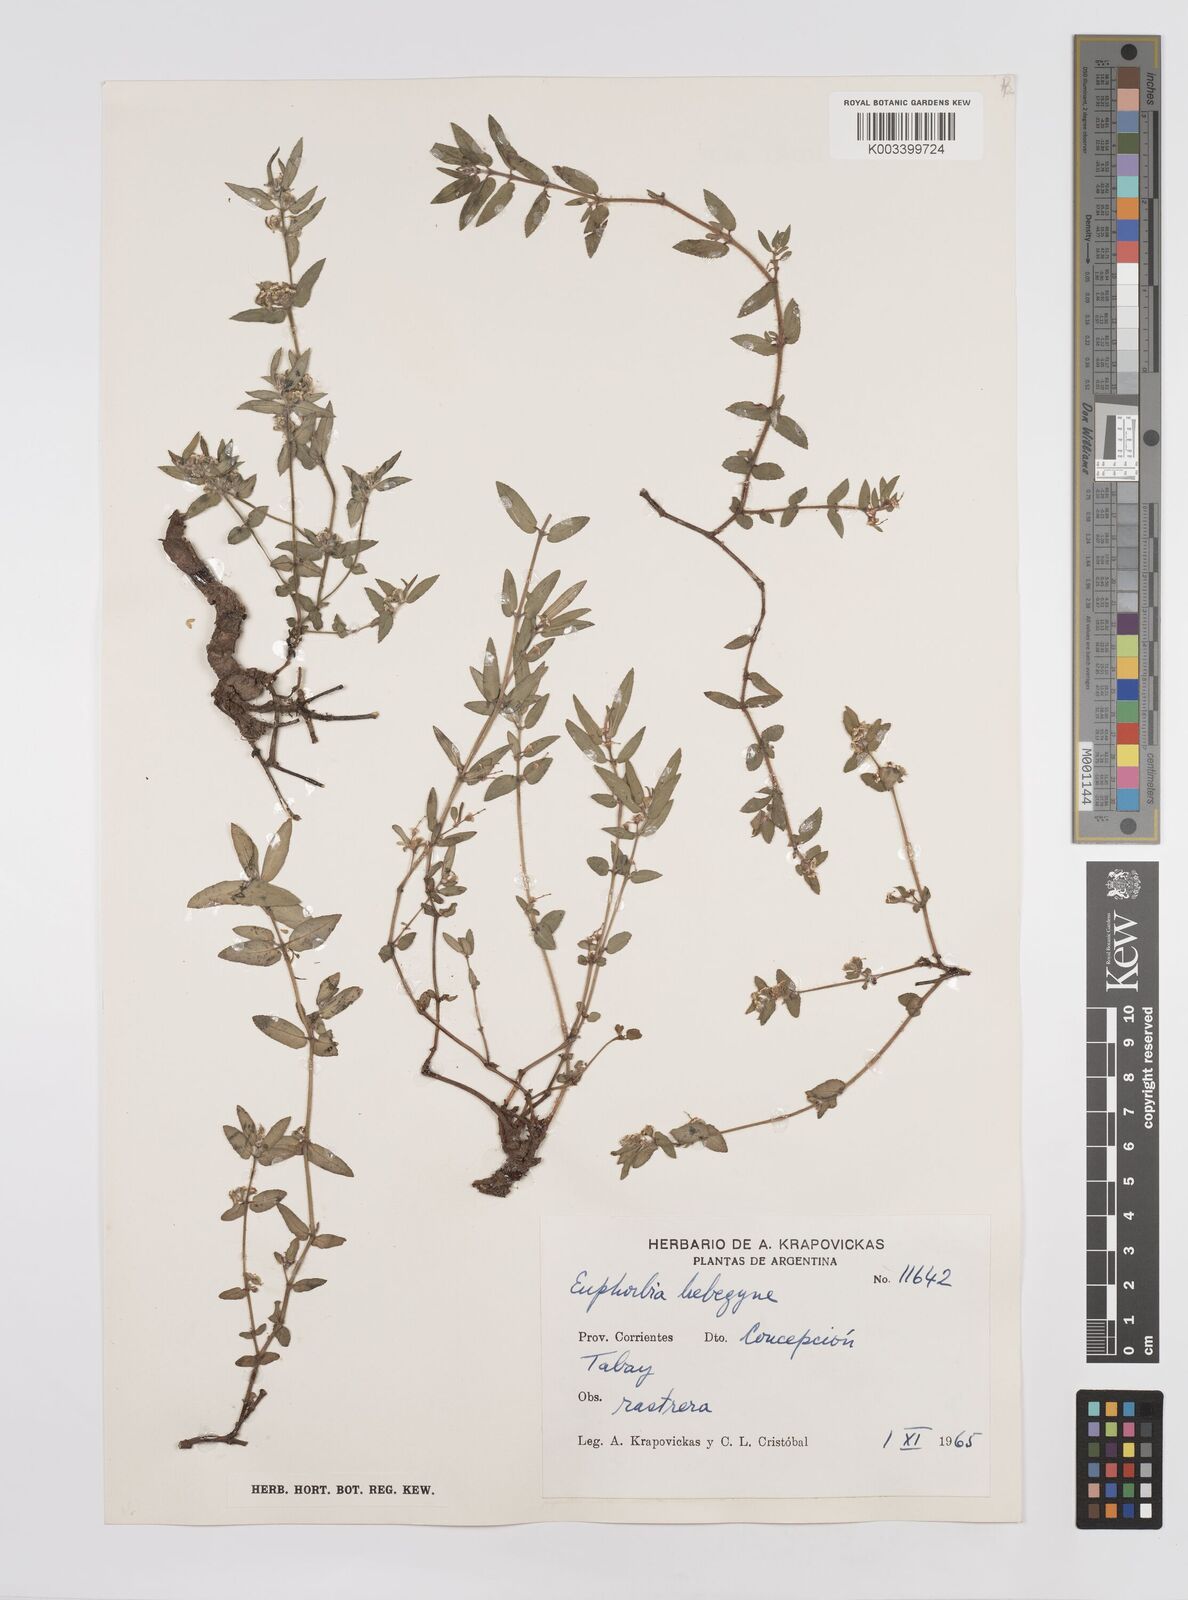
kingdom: Plantae
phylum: Tracheophyta
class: Magnoliopsida
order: Malpighiales
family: Euphorbiaceae
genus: Euphorbia
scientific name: Euphorbia selloi
